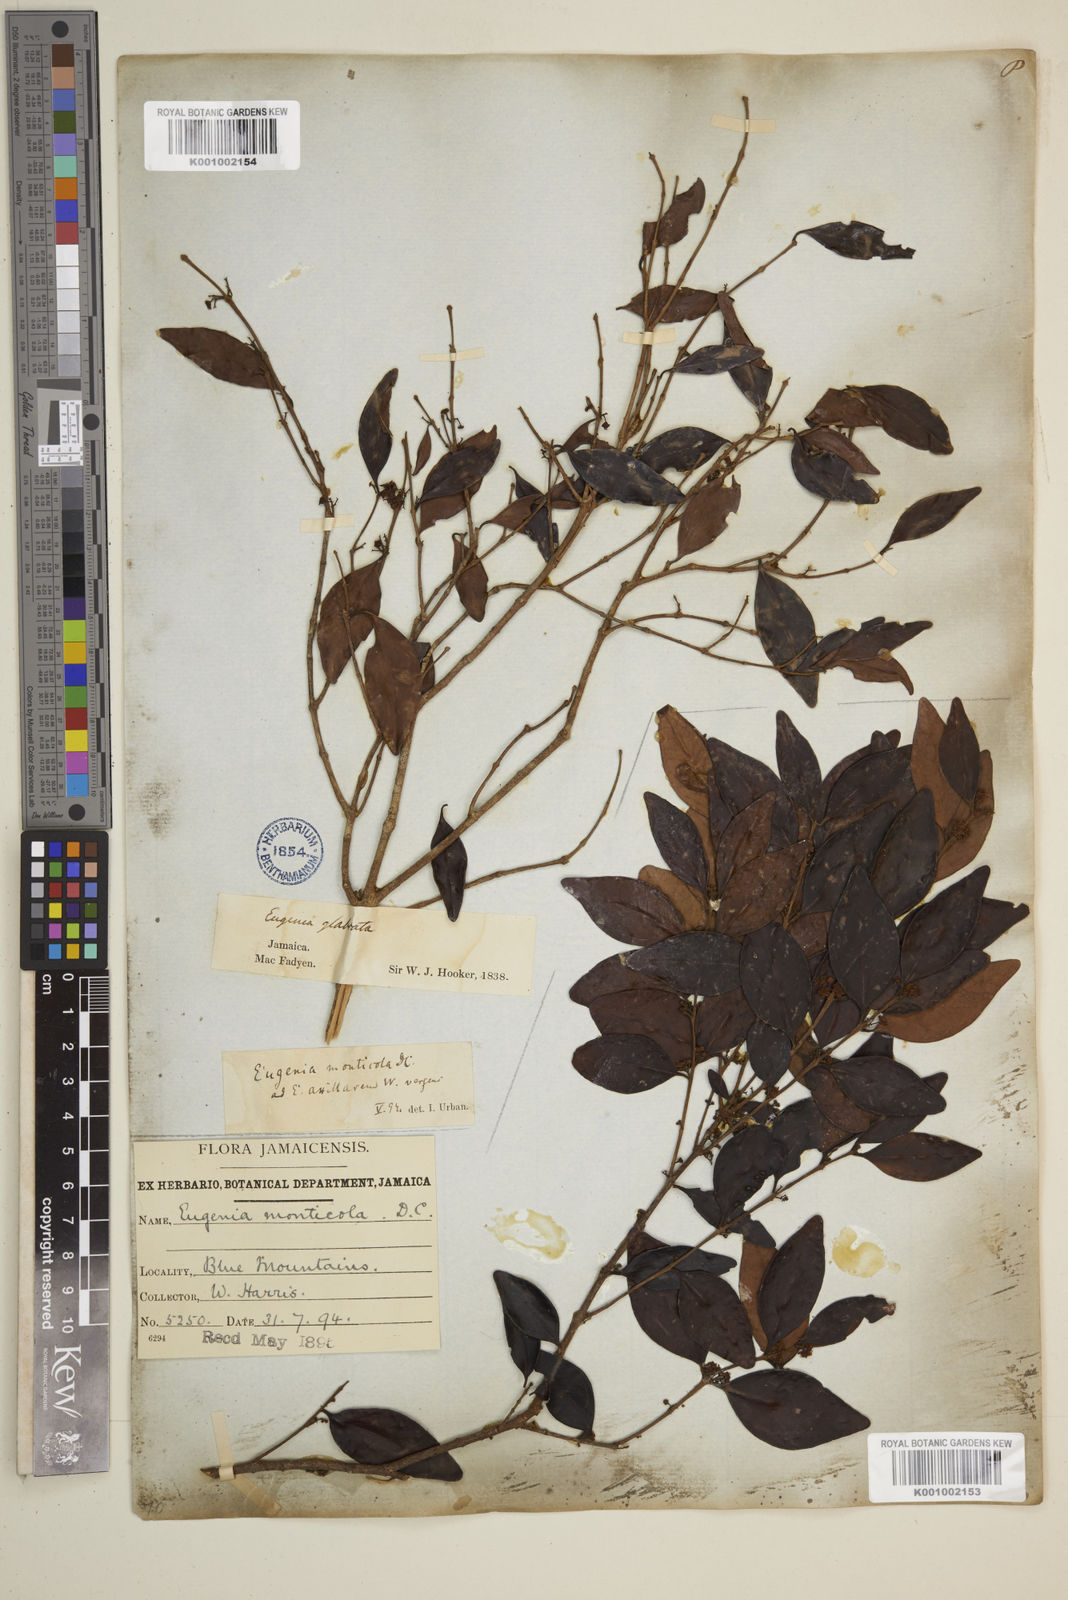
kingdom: Plantae
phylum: Tracheophyta
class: Magnoliopsida
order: Myrtales
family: Myrtaceae
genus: Eugenia
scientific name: Eugenia monticola
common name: Birds berry
